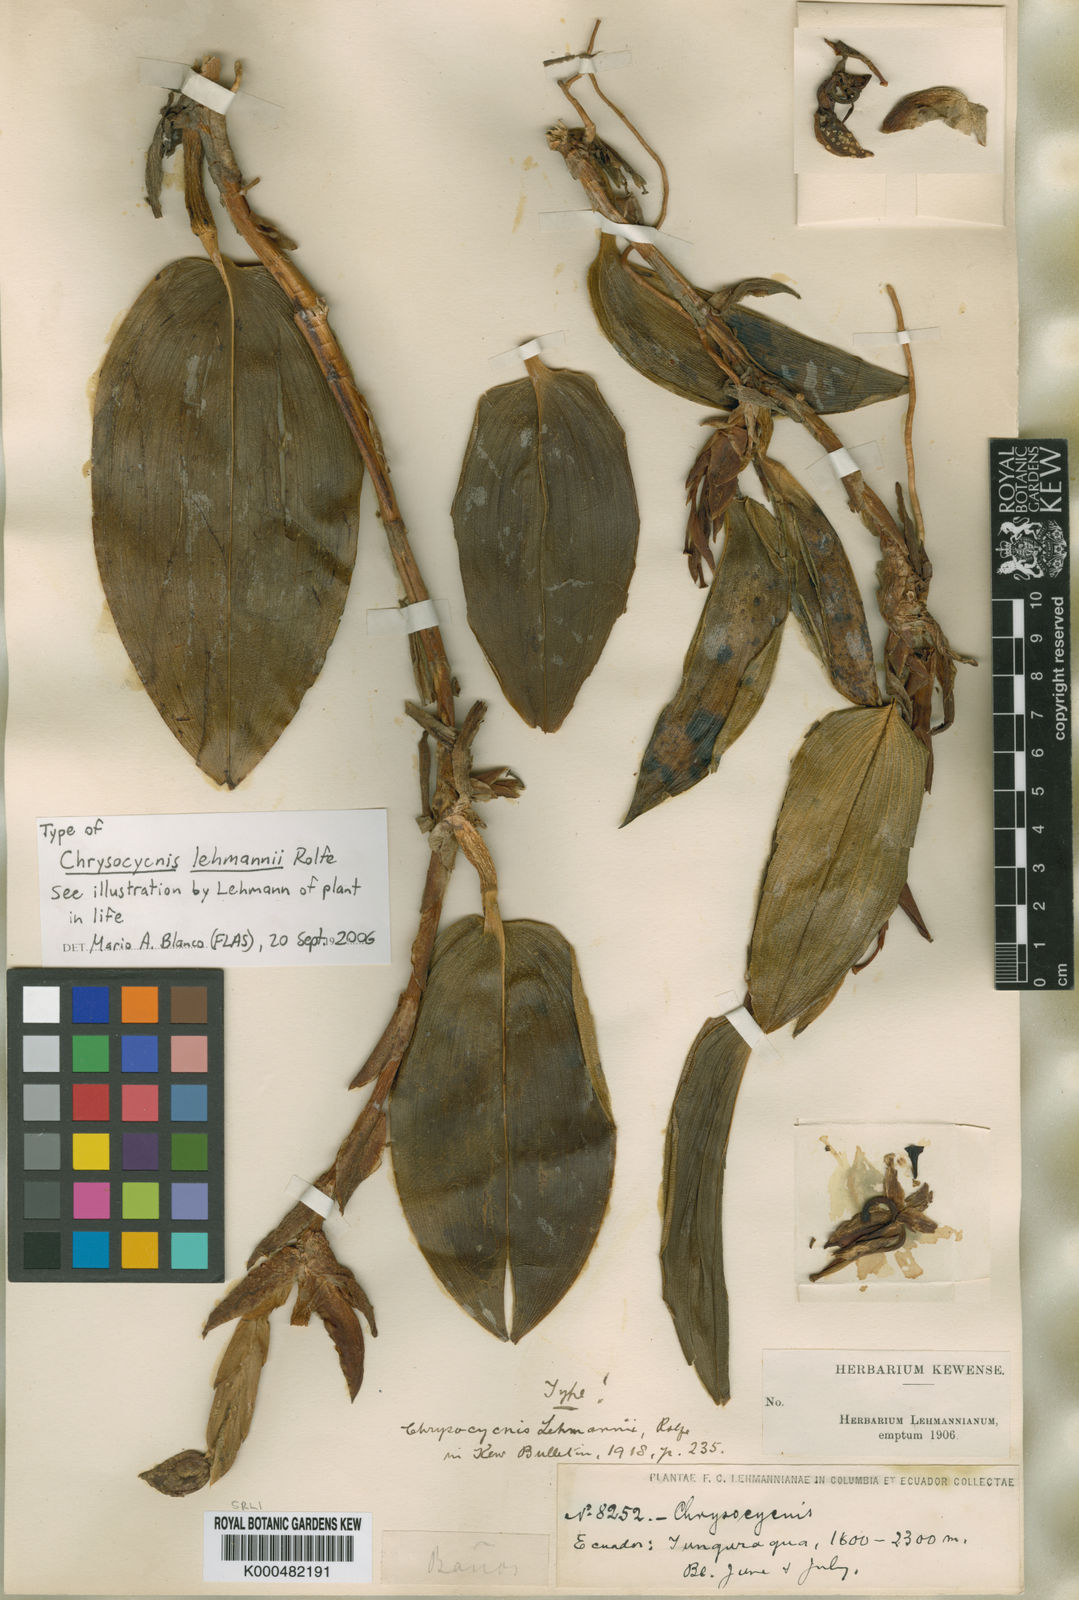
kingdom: Plantae
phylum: Tracheophyta
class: Liliopsida
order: Asparagales
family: Orchidaceae
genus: Maxillaria
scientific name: Maxillaria
